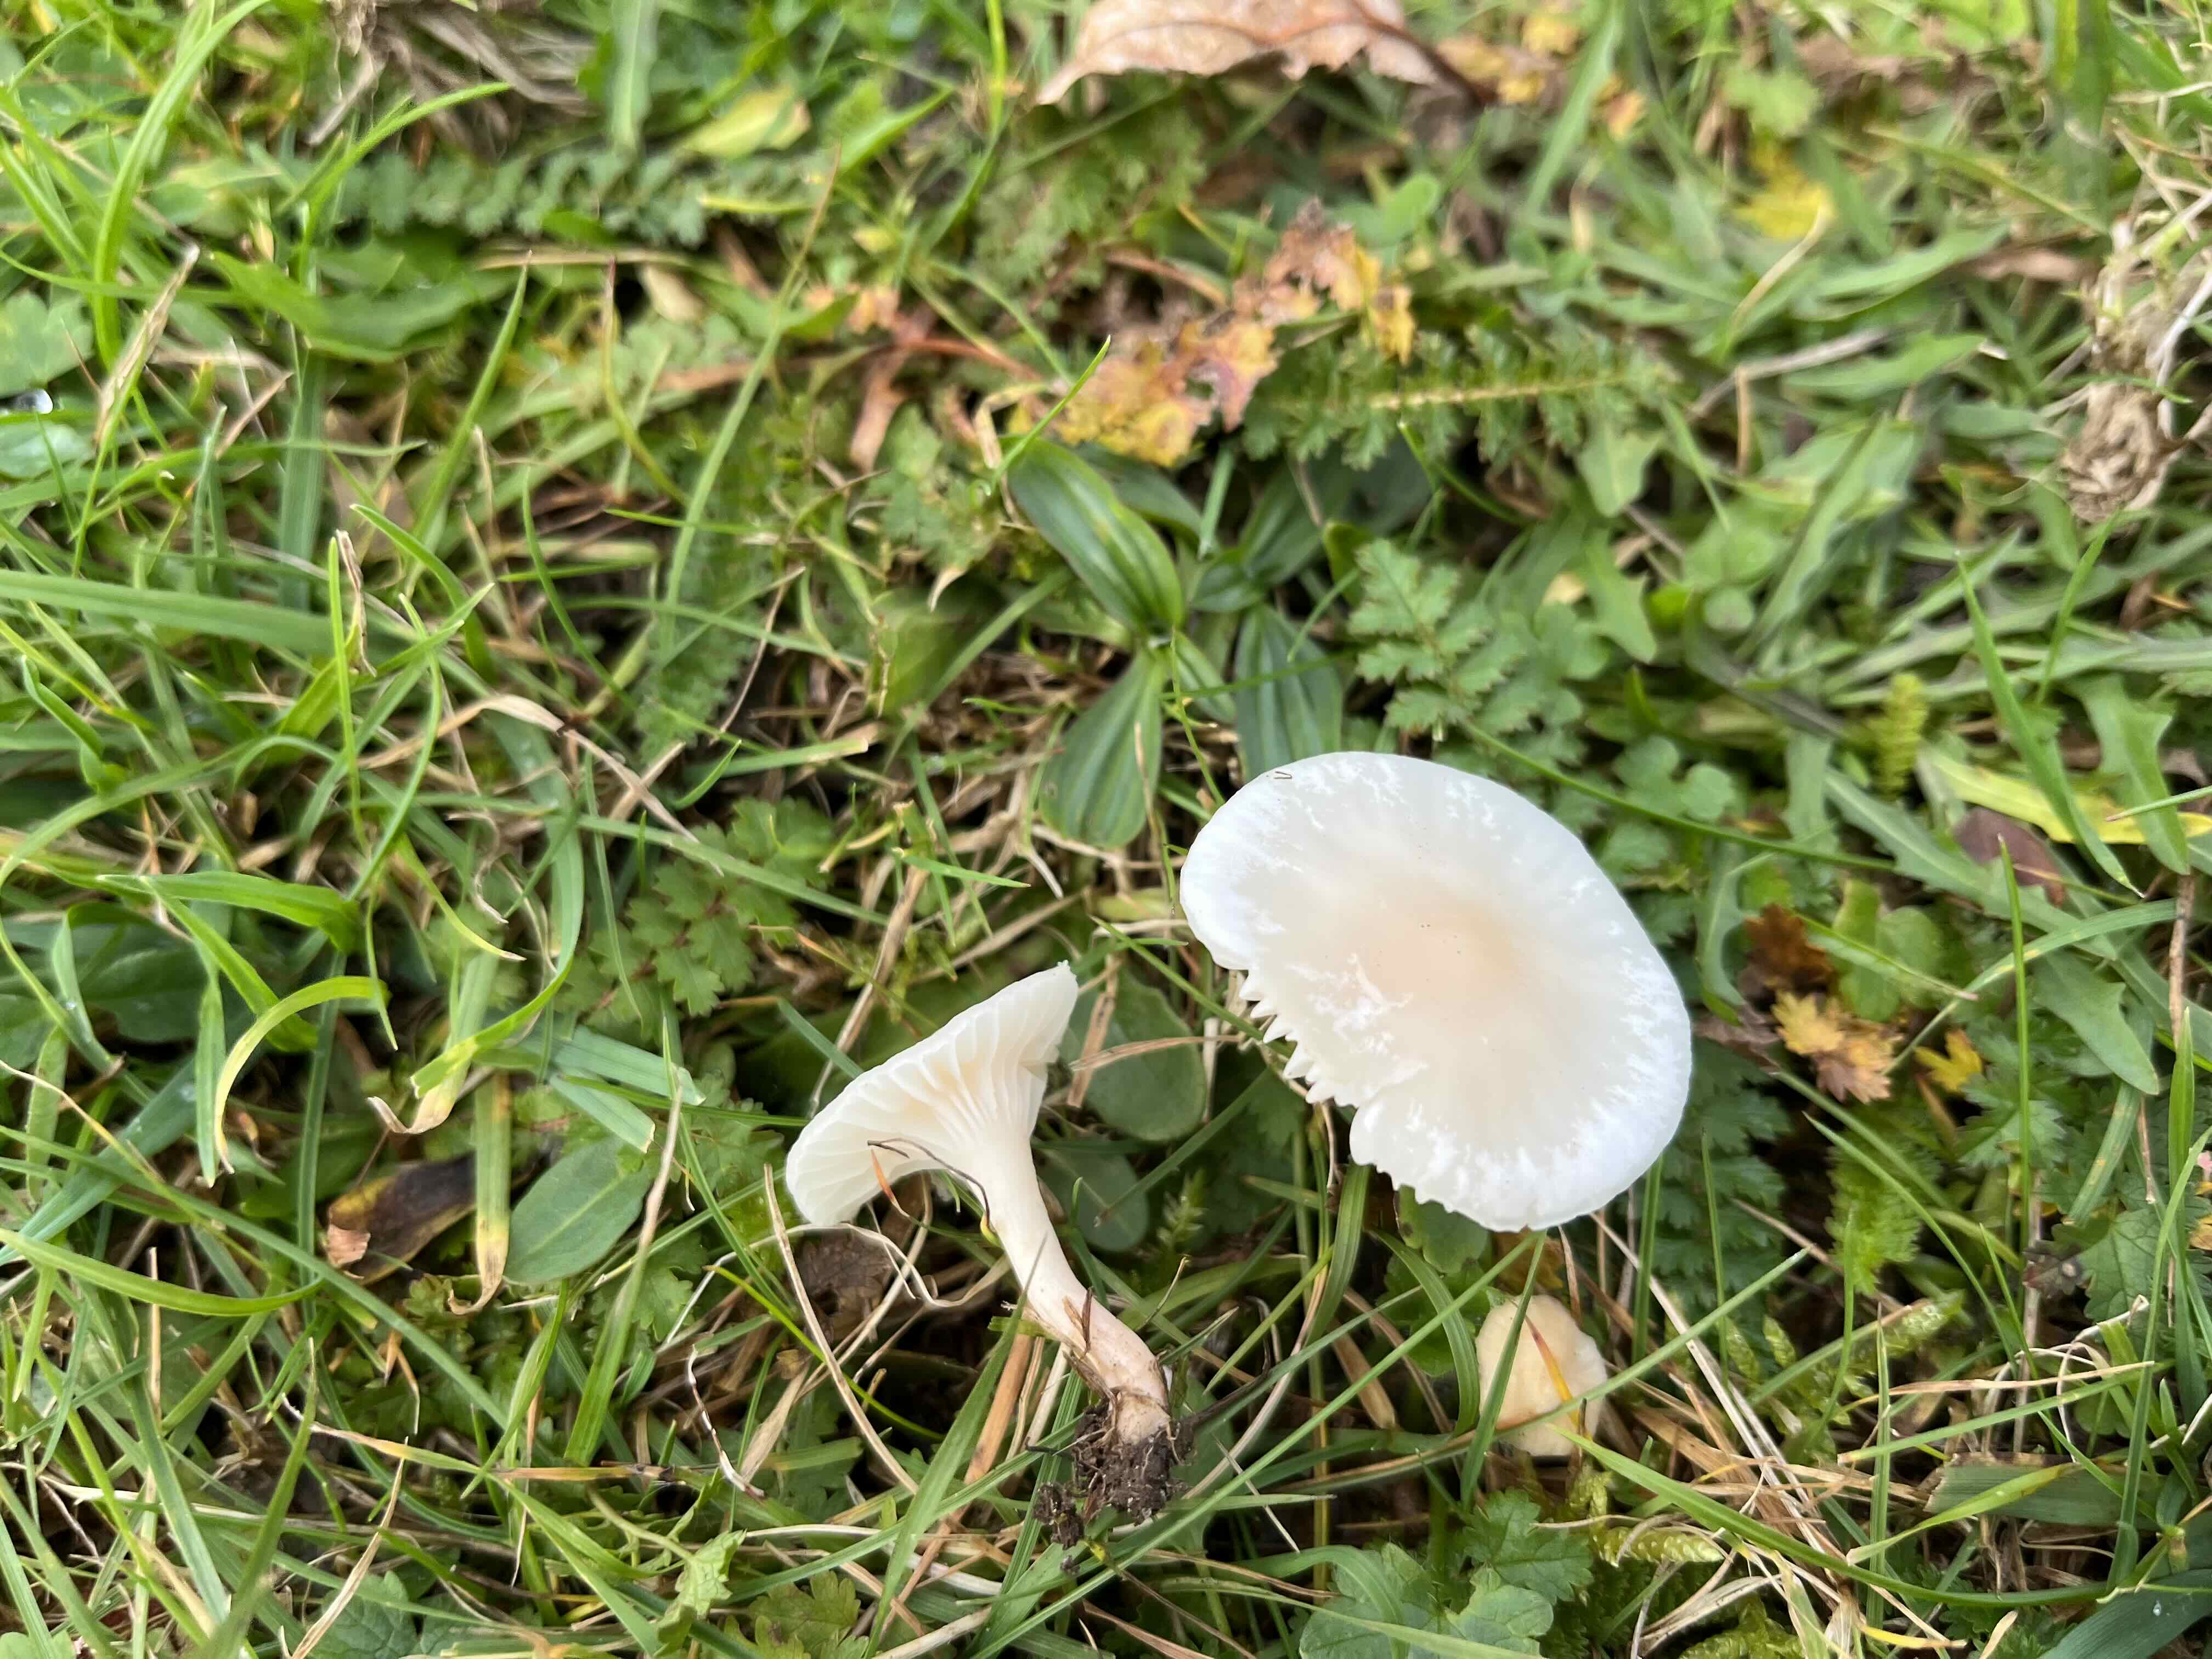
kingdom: Fungi
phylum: Basidiomycota
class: Agaricomycetes
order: Agaricales
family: Hygrophoraceae
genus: Cuphophyllus
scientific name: Cuphophyllus virgineus
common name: snehvid vokshat
